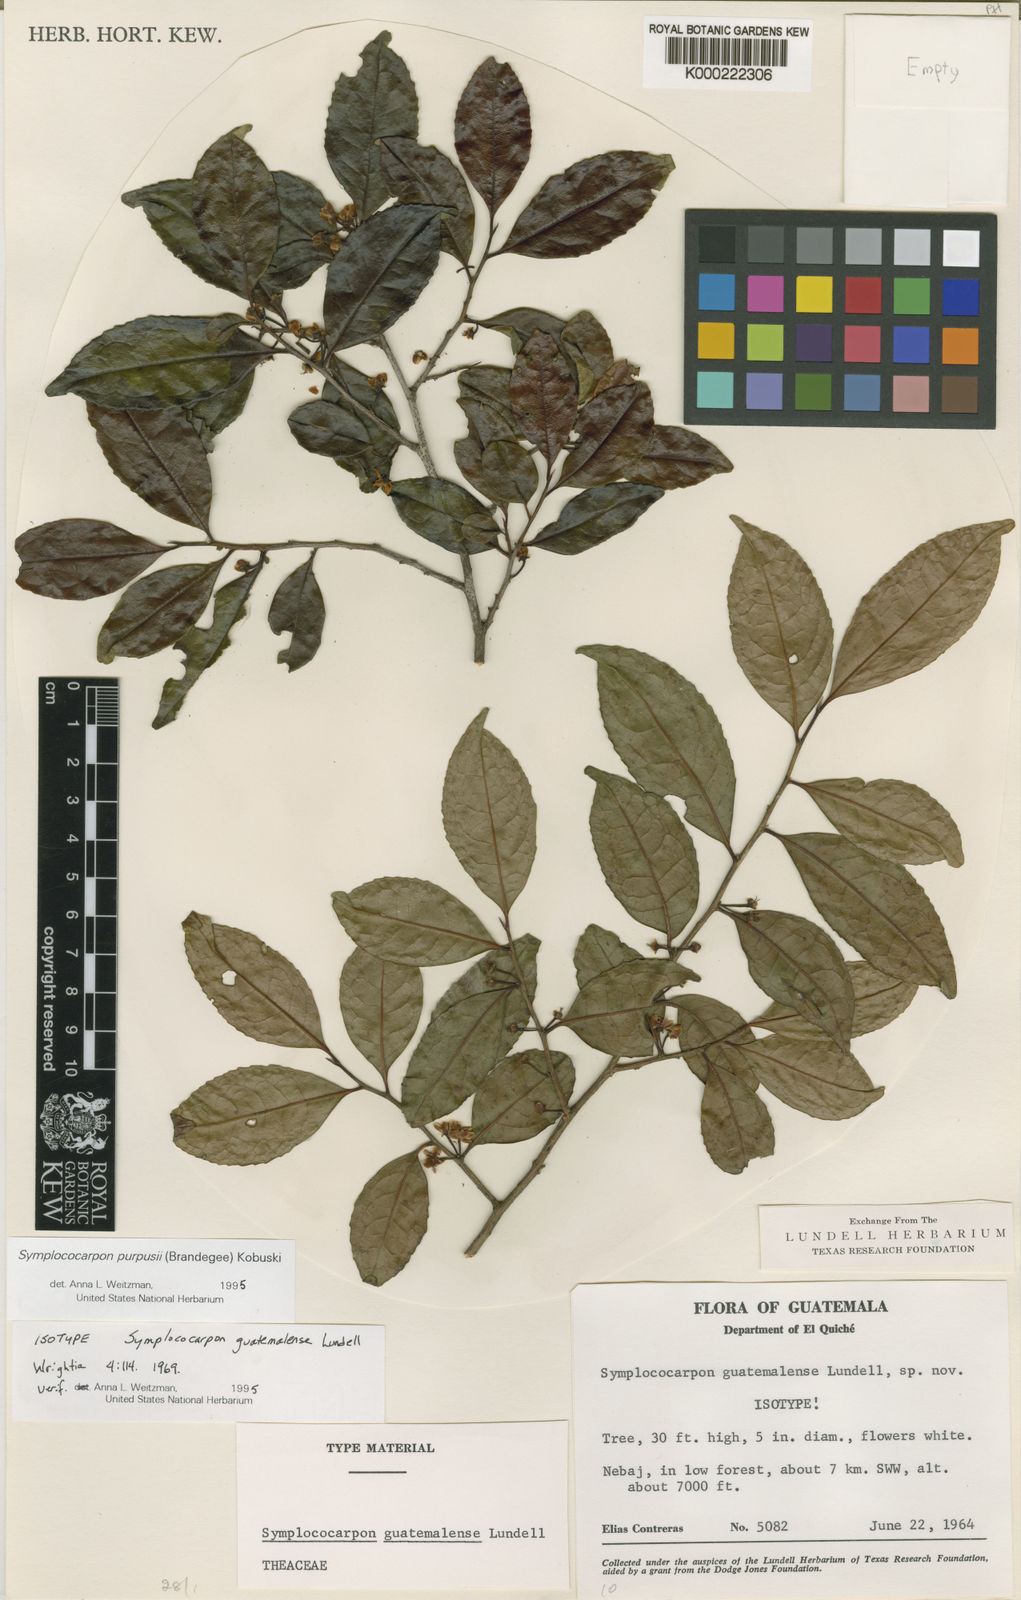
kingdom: Plantae
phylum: Tracheophyta
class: Magnoliopsida
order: Ericales
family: Pentaphylacaceae
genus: Symplococarpon
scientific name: Symplococarpon purpusii
